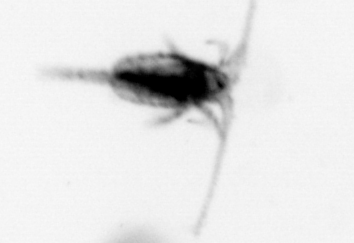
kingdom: Animalia
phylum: Arthropoda
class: Copepoda
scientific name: Copepoda
